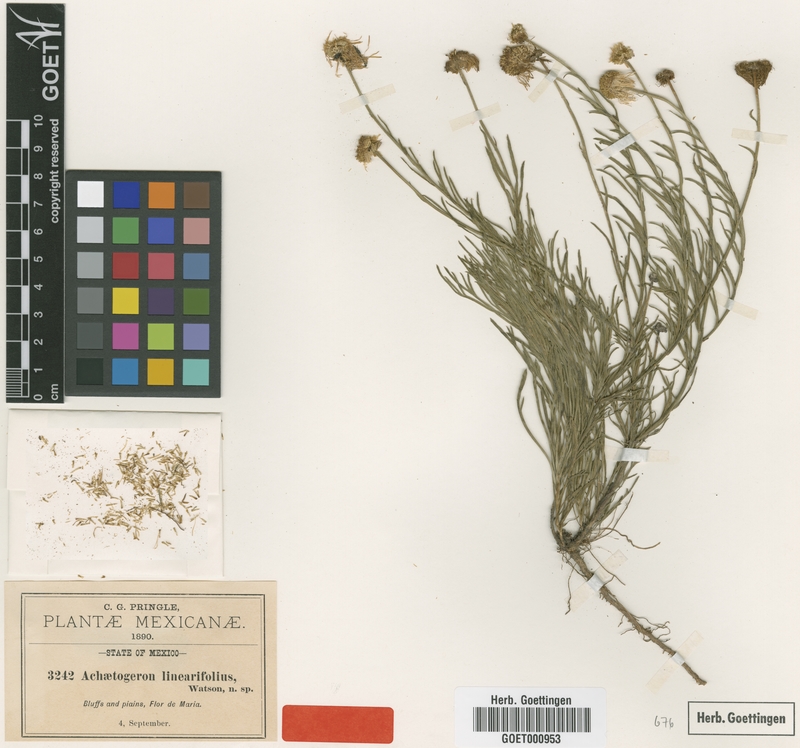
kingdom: Plantae
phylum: Tracheophyta
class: Magnoliopsida
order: Asterales
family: Asteraceae
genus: Erigeron
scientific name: Erigeron janivultus
